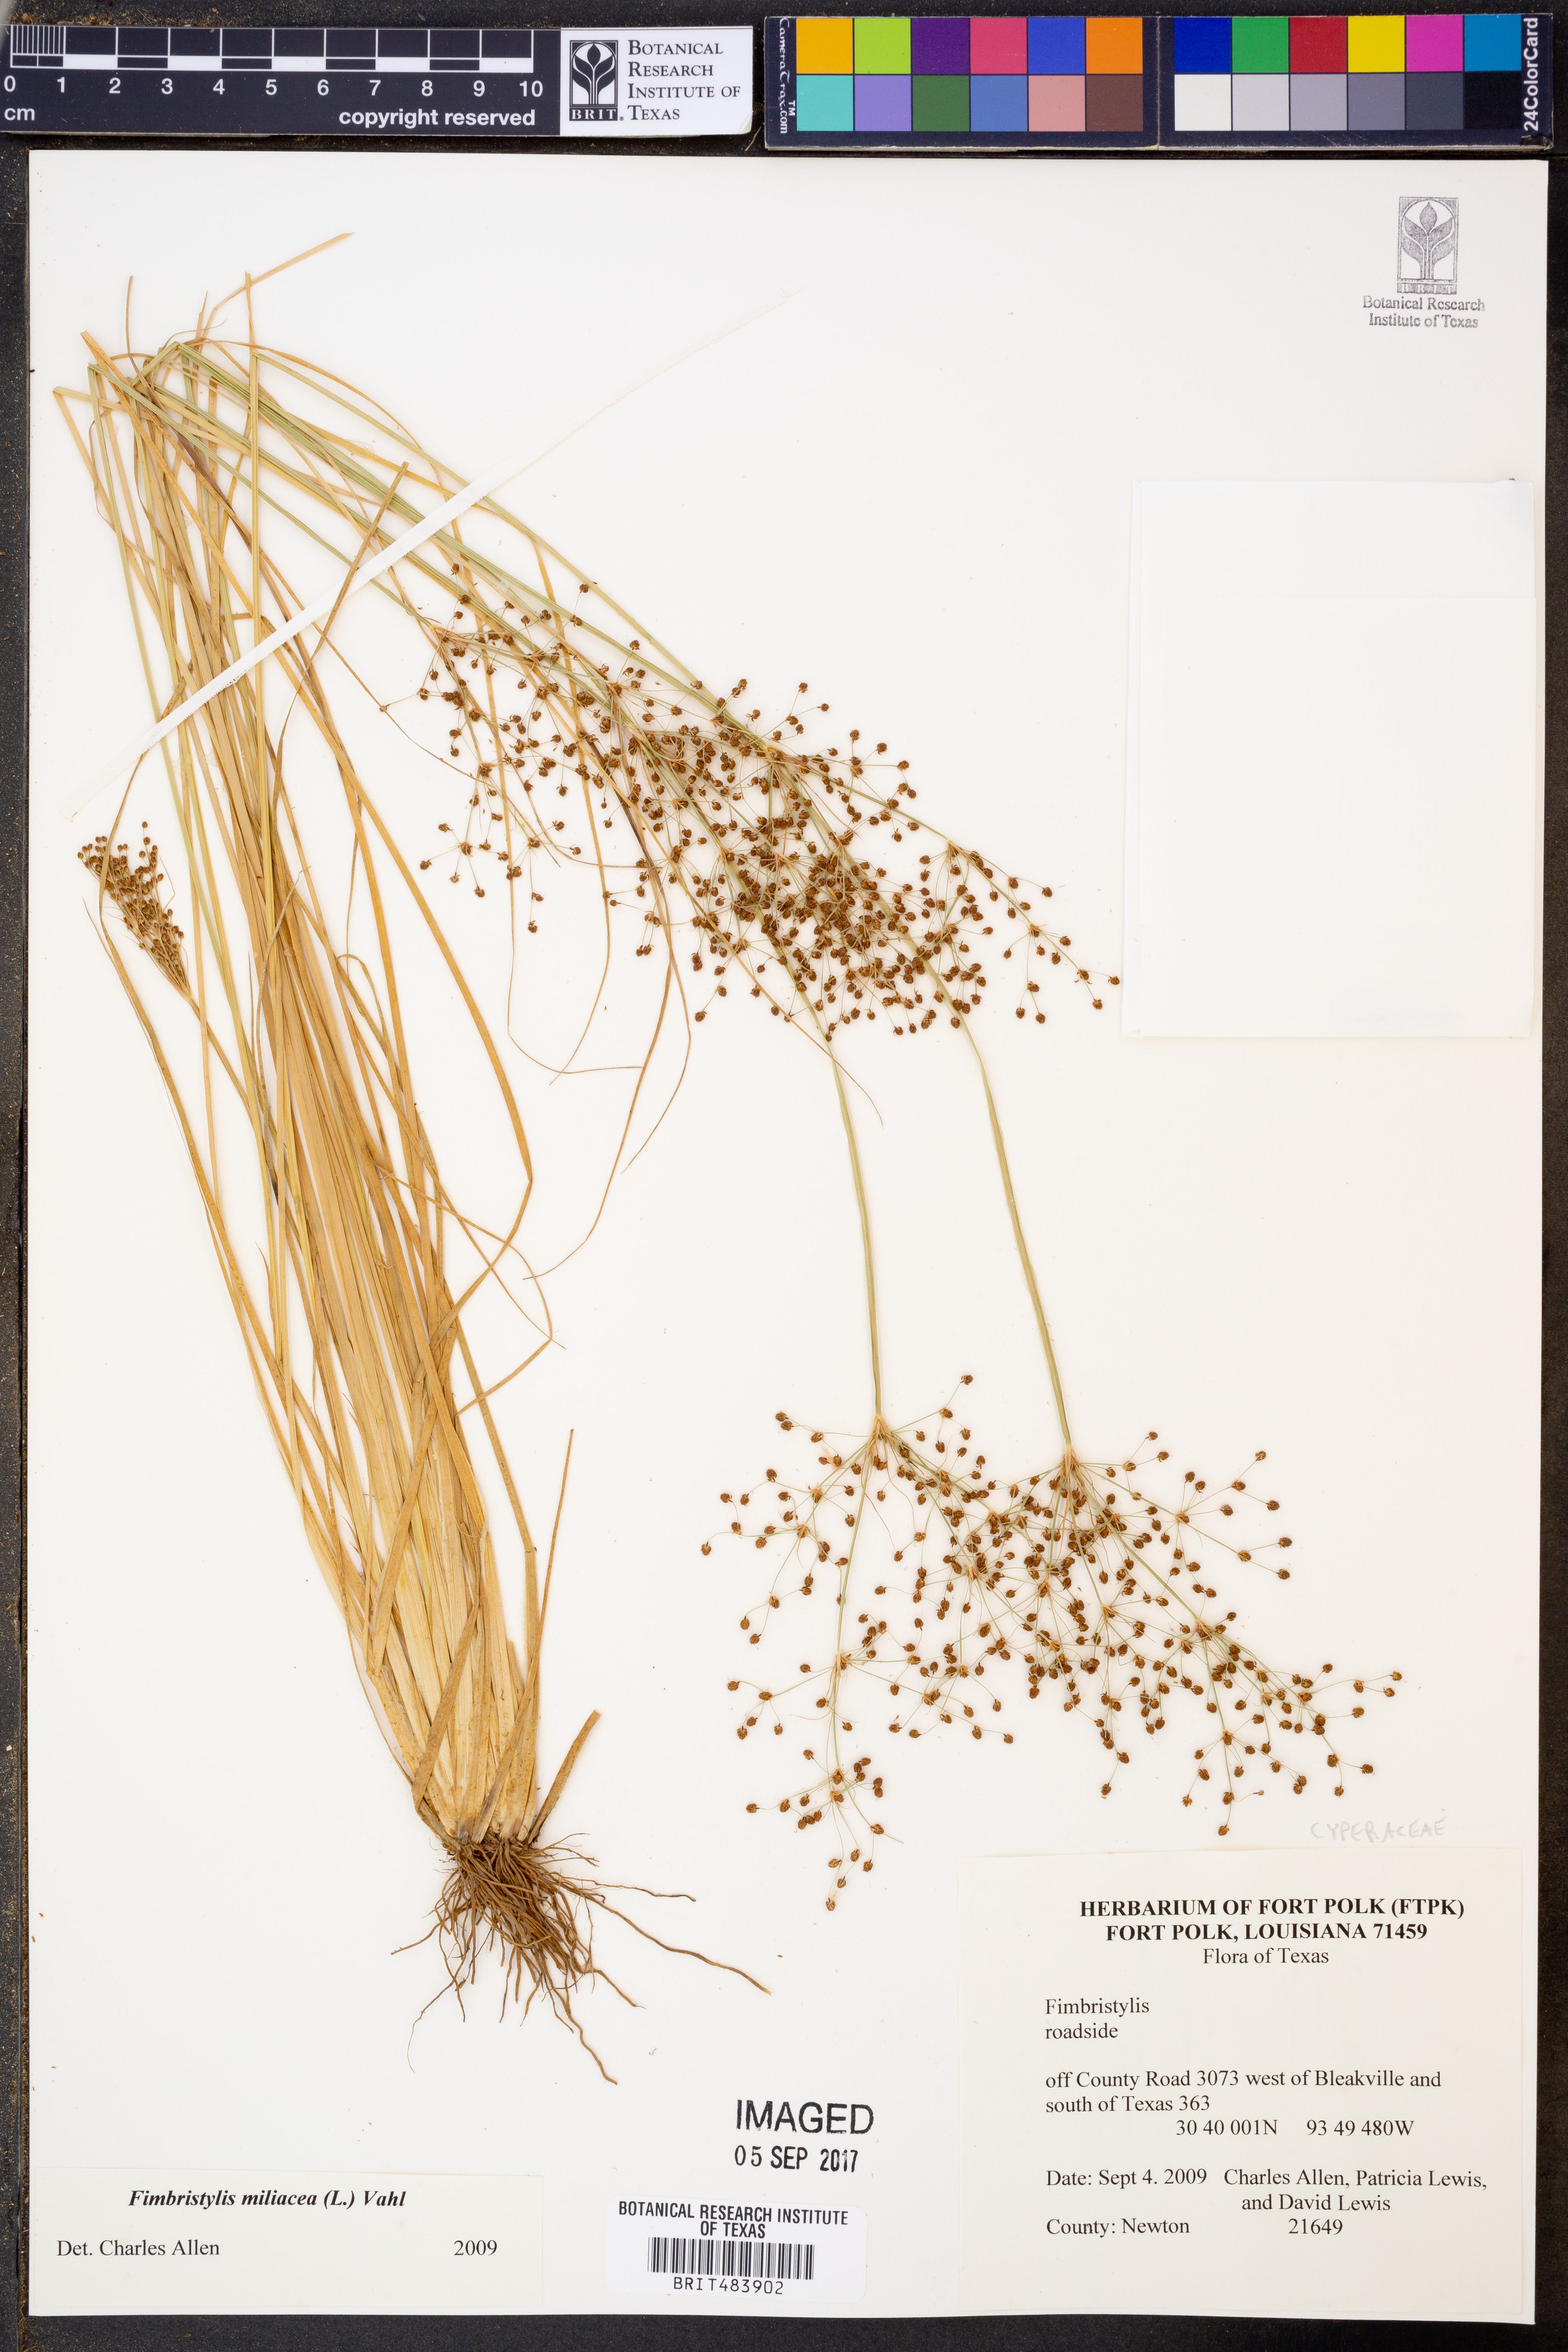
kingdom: Plantae
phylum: Tracheophyta
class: Liliopsida
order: Poales
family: Cyperaceae
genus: Fimbristylis
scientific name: Fimbristylis quinquangularis
